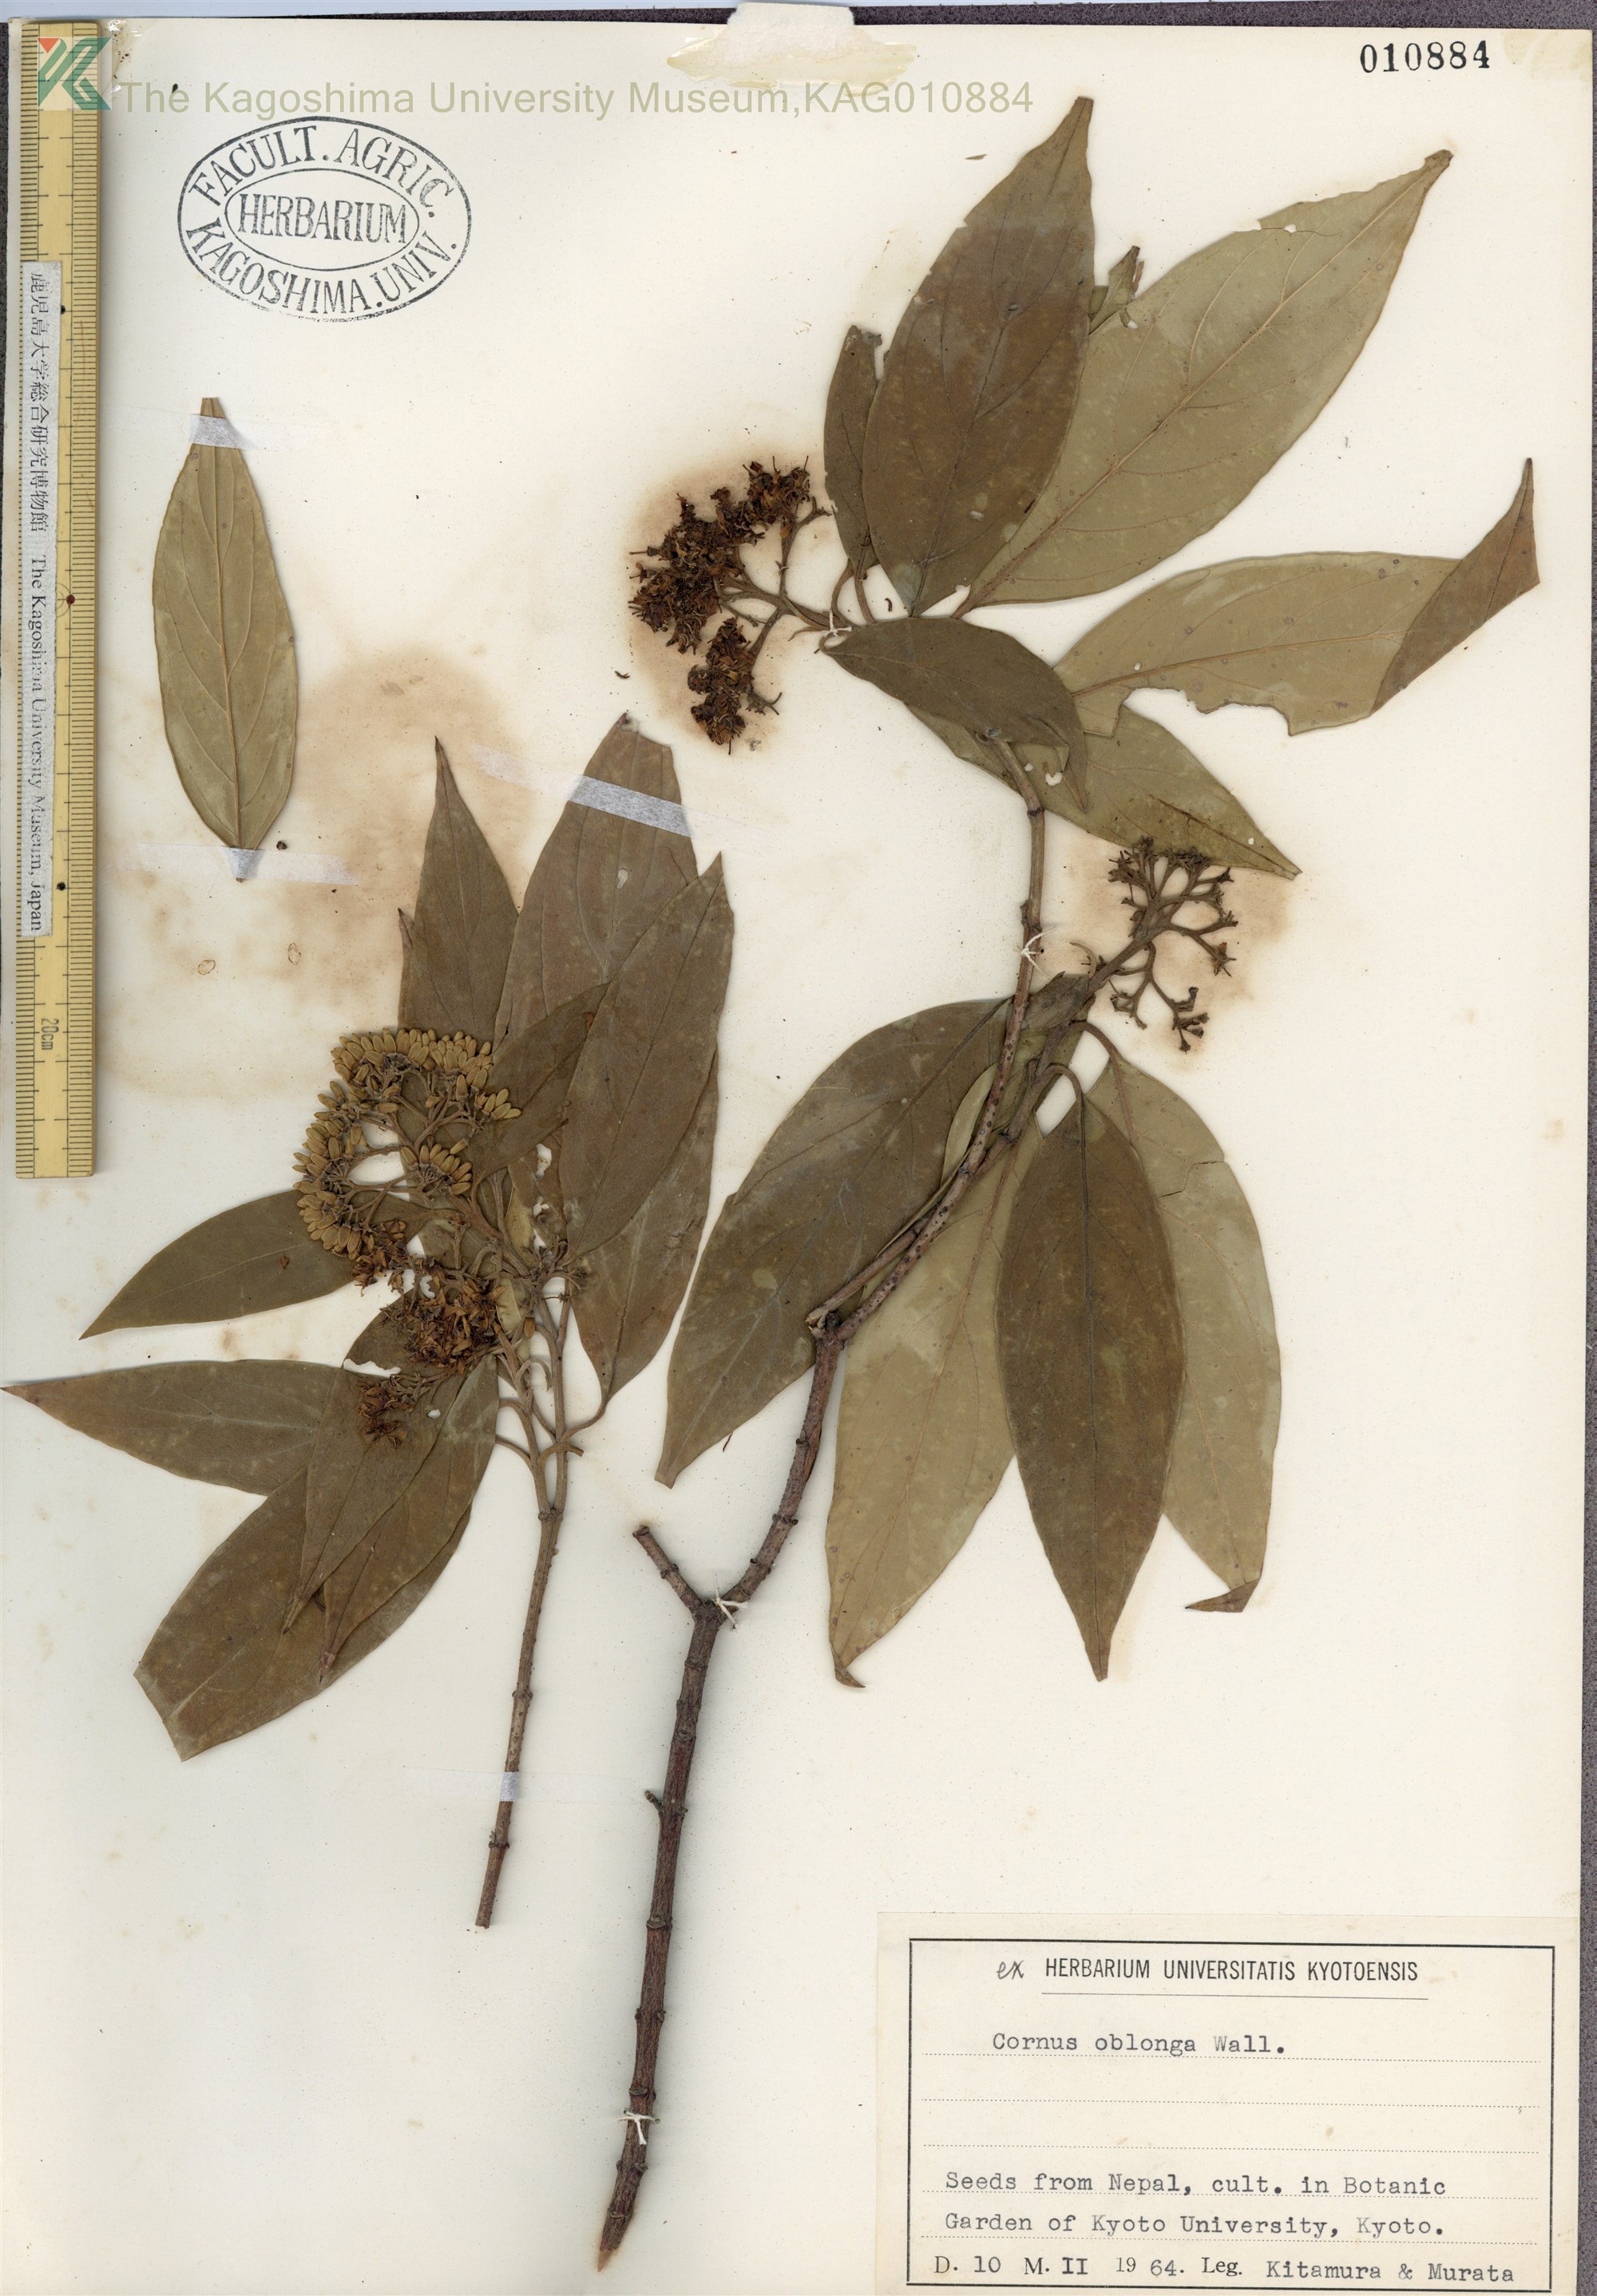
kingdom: Plantae
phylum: Tracheophyta
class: Magnoliopsida
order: Cornales
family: Cornaceae
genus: Cornus
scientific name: Cornus oblonga
